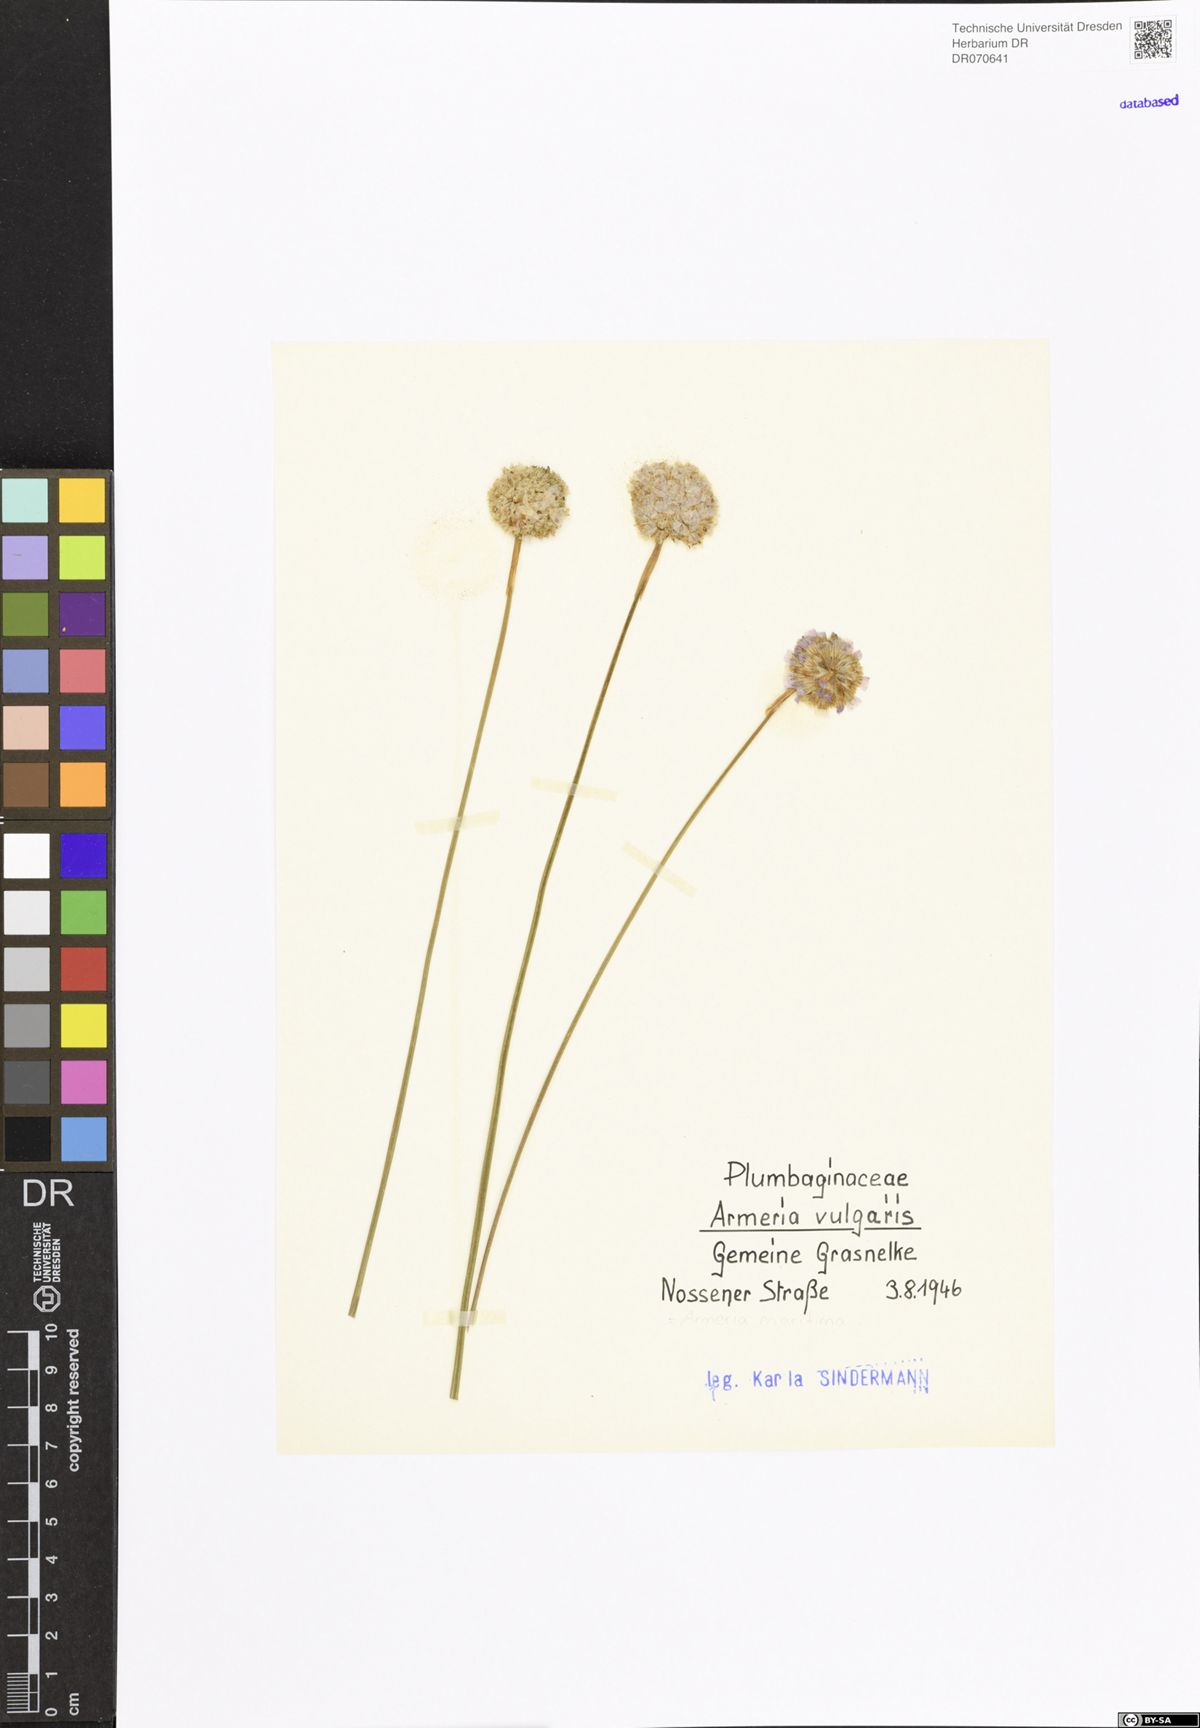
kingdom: Plantae
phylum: Tracheophyta
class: Magnoliopsida
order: Caryophyllales
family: Plumbaginaceae
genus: Armeria
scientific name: Armeria maritima
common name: Thrift
